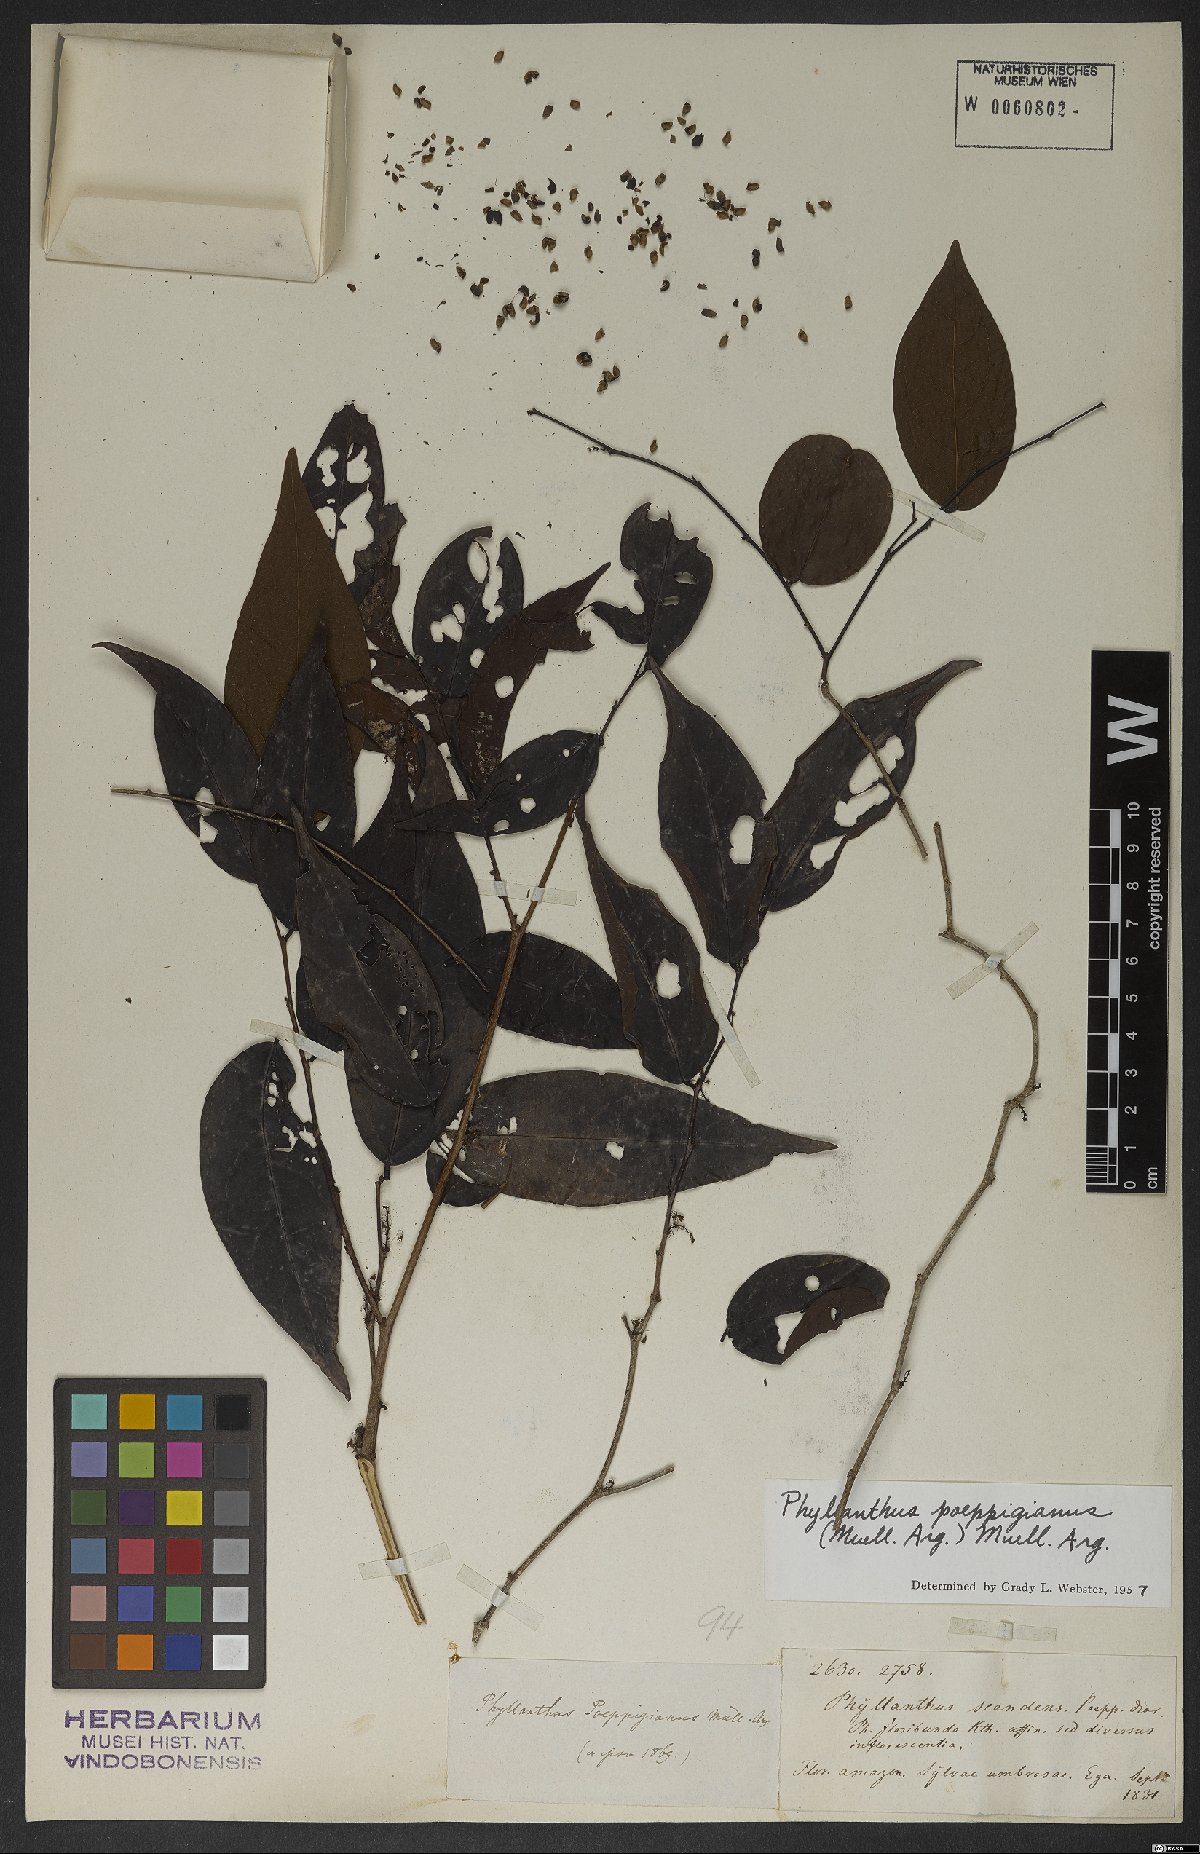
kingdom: Plantae
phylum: Tracheophyta
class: Magnoliopsida
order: Malpighiales
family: Phyllanthaceae
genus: Phyllanthus
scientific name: Phyllanthus poeppigianus
